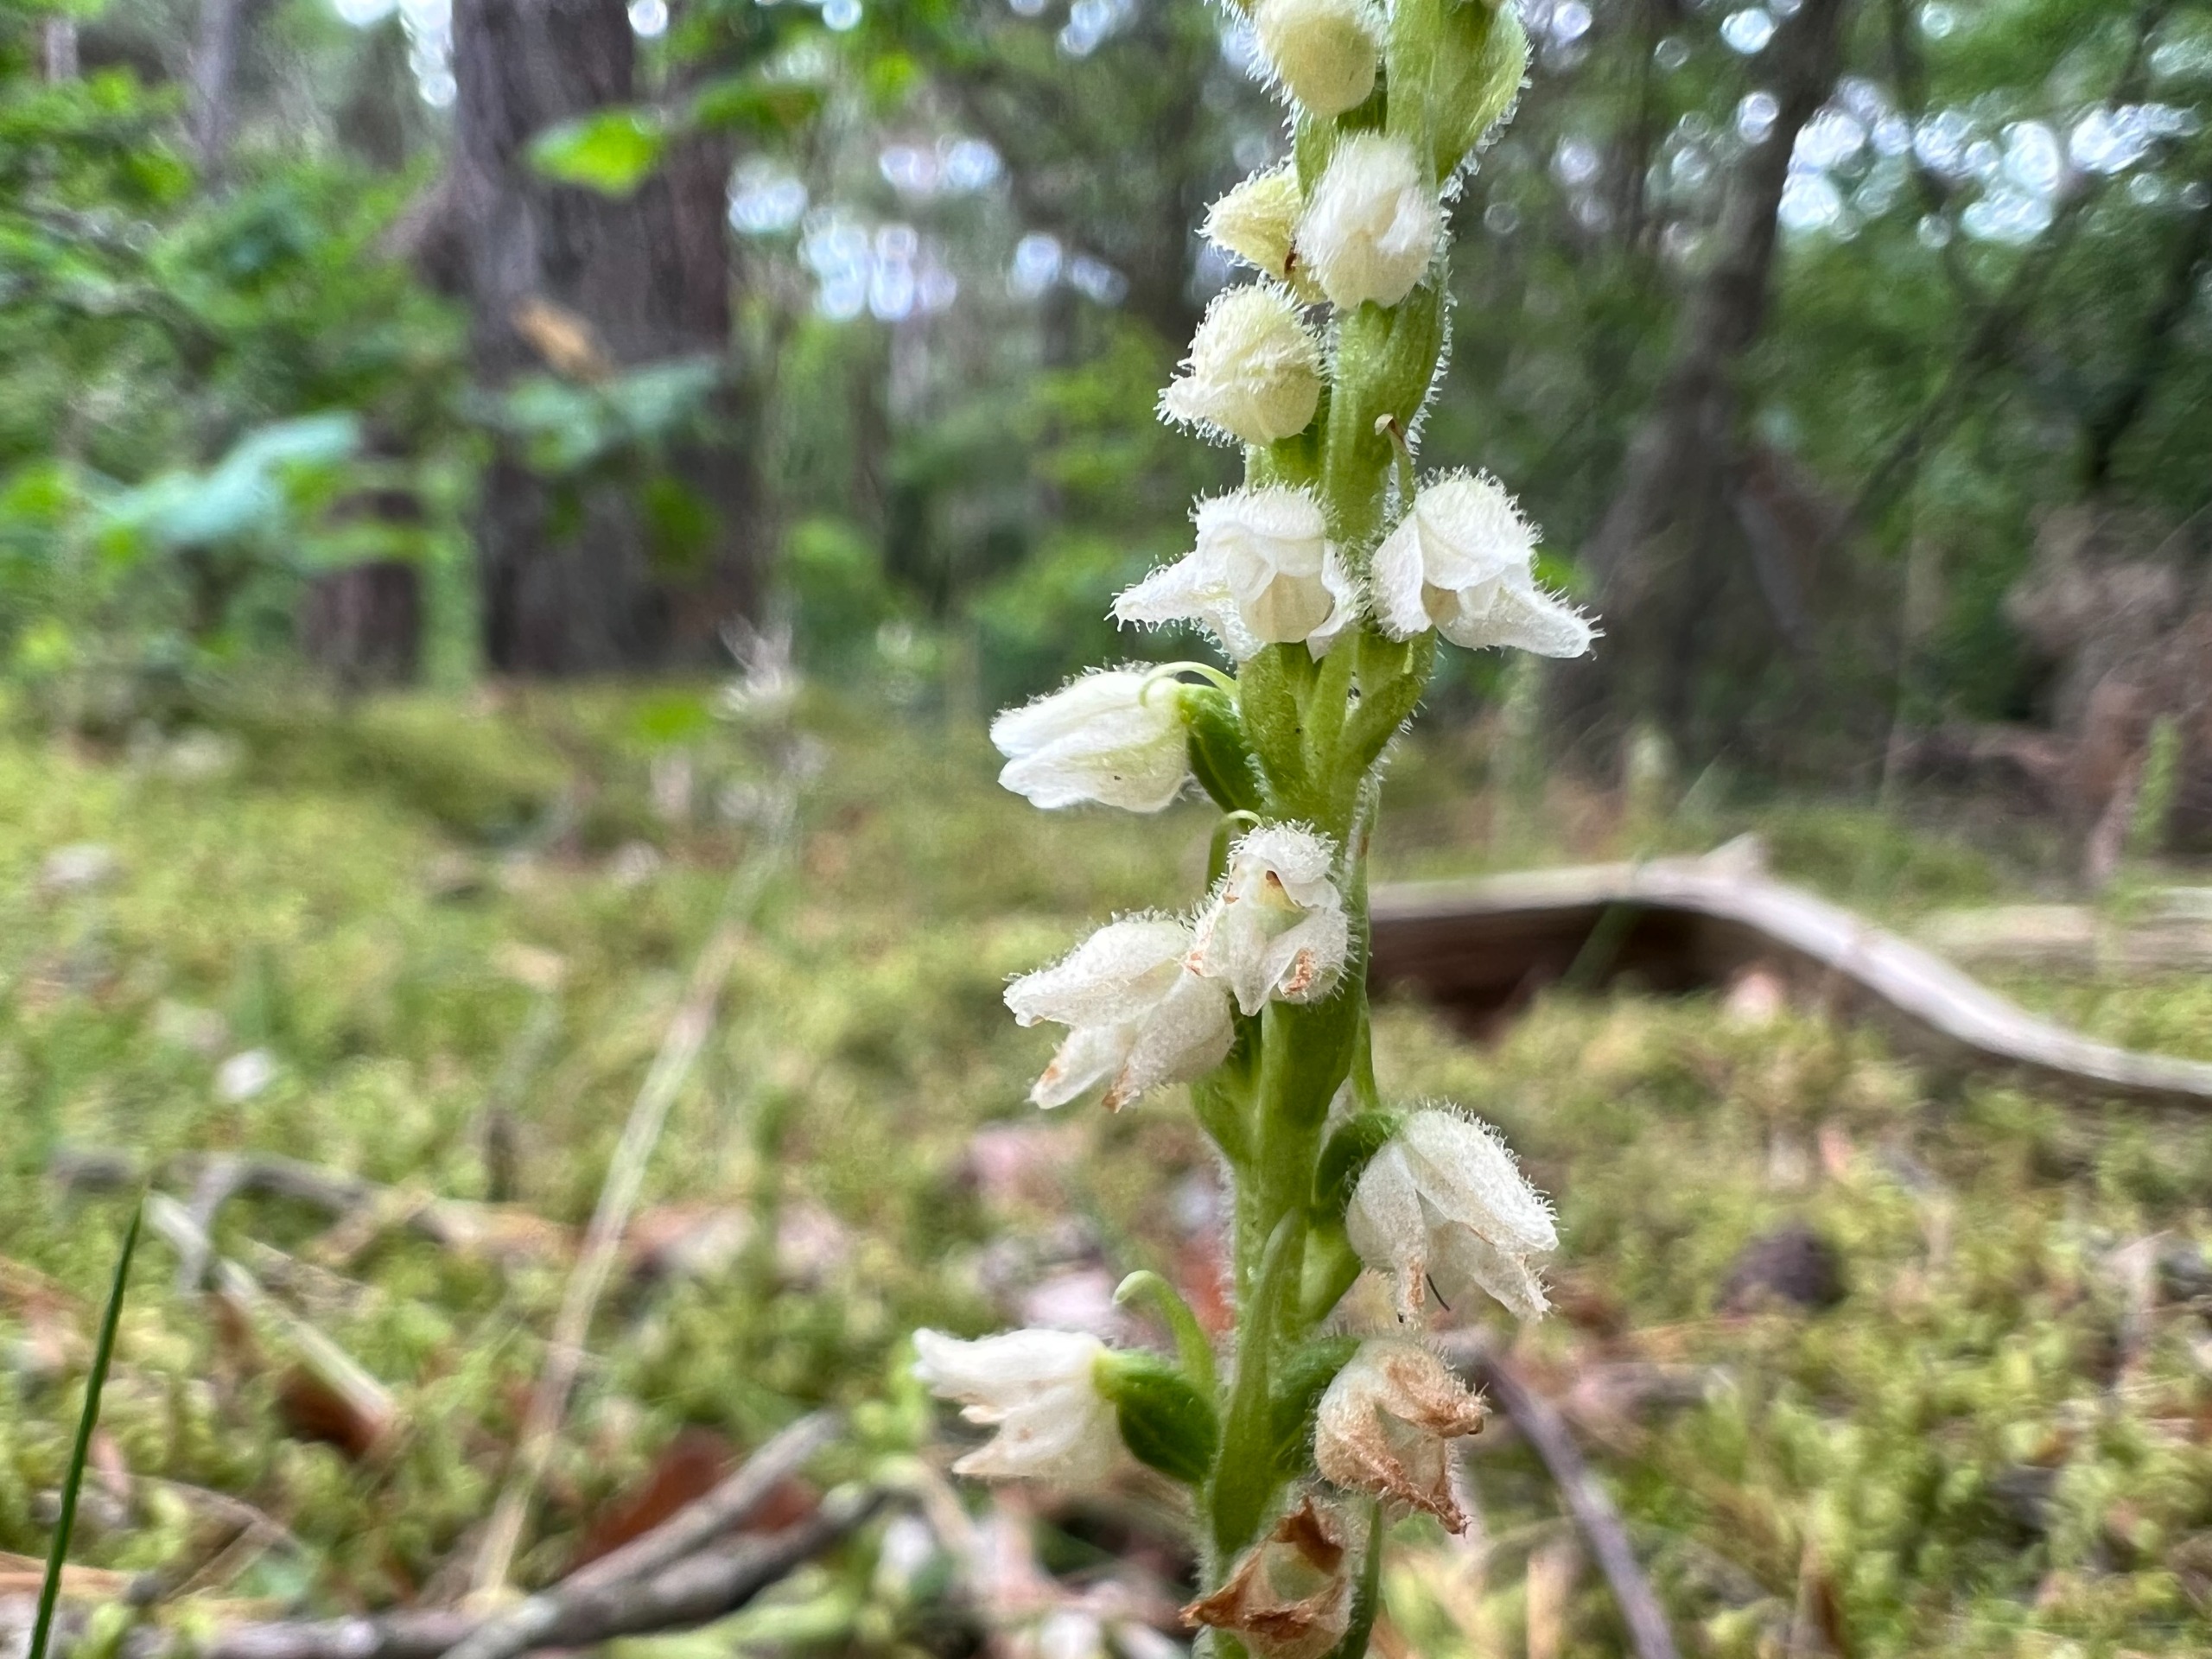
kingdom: Plantae
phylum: Tracheophyta
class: Liliopsida
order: Asparagales
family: Orchidaceae
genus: Goodyera
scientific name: Goodyera repens
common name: Knærod
